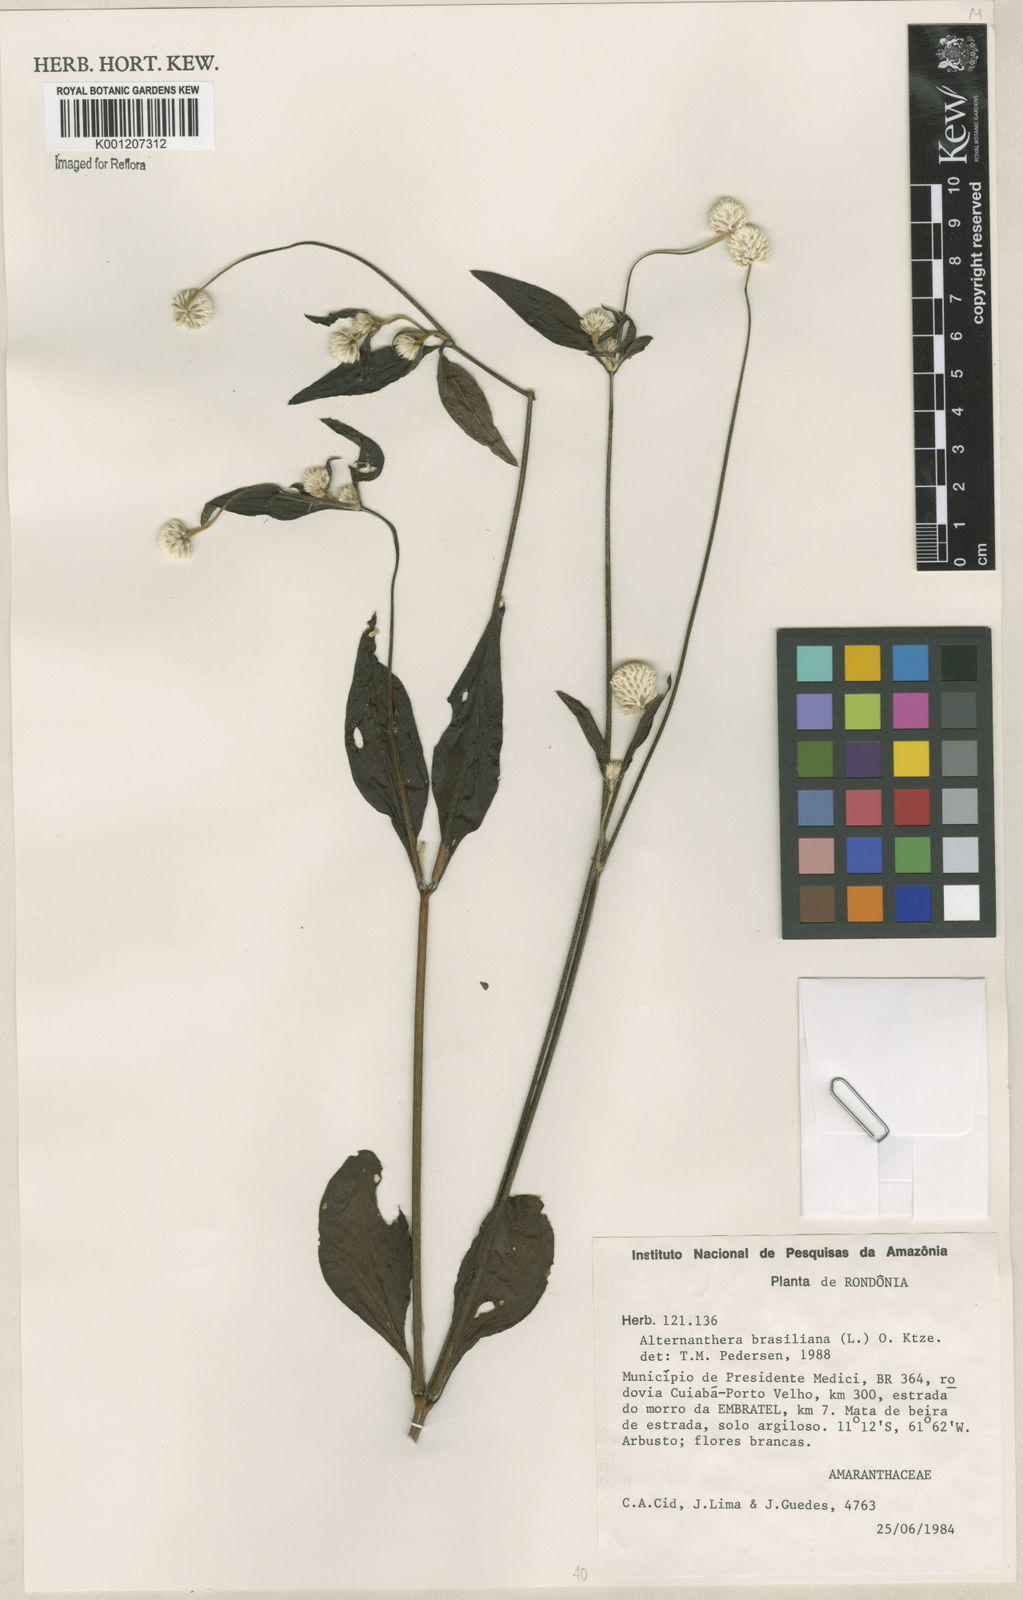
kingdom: Plantae
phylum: Tracheophyta
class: Magnoliopsida
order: Caryophyllales
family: Amaranthaceae
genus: Alternanthera
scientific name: Alternanthera brasiliana
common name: Brazilian joyweed
